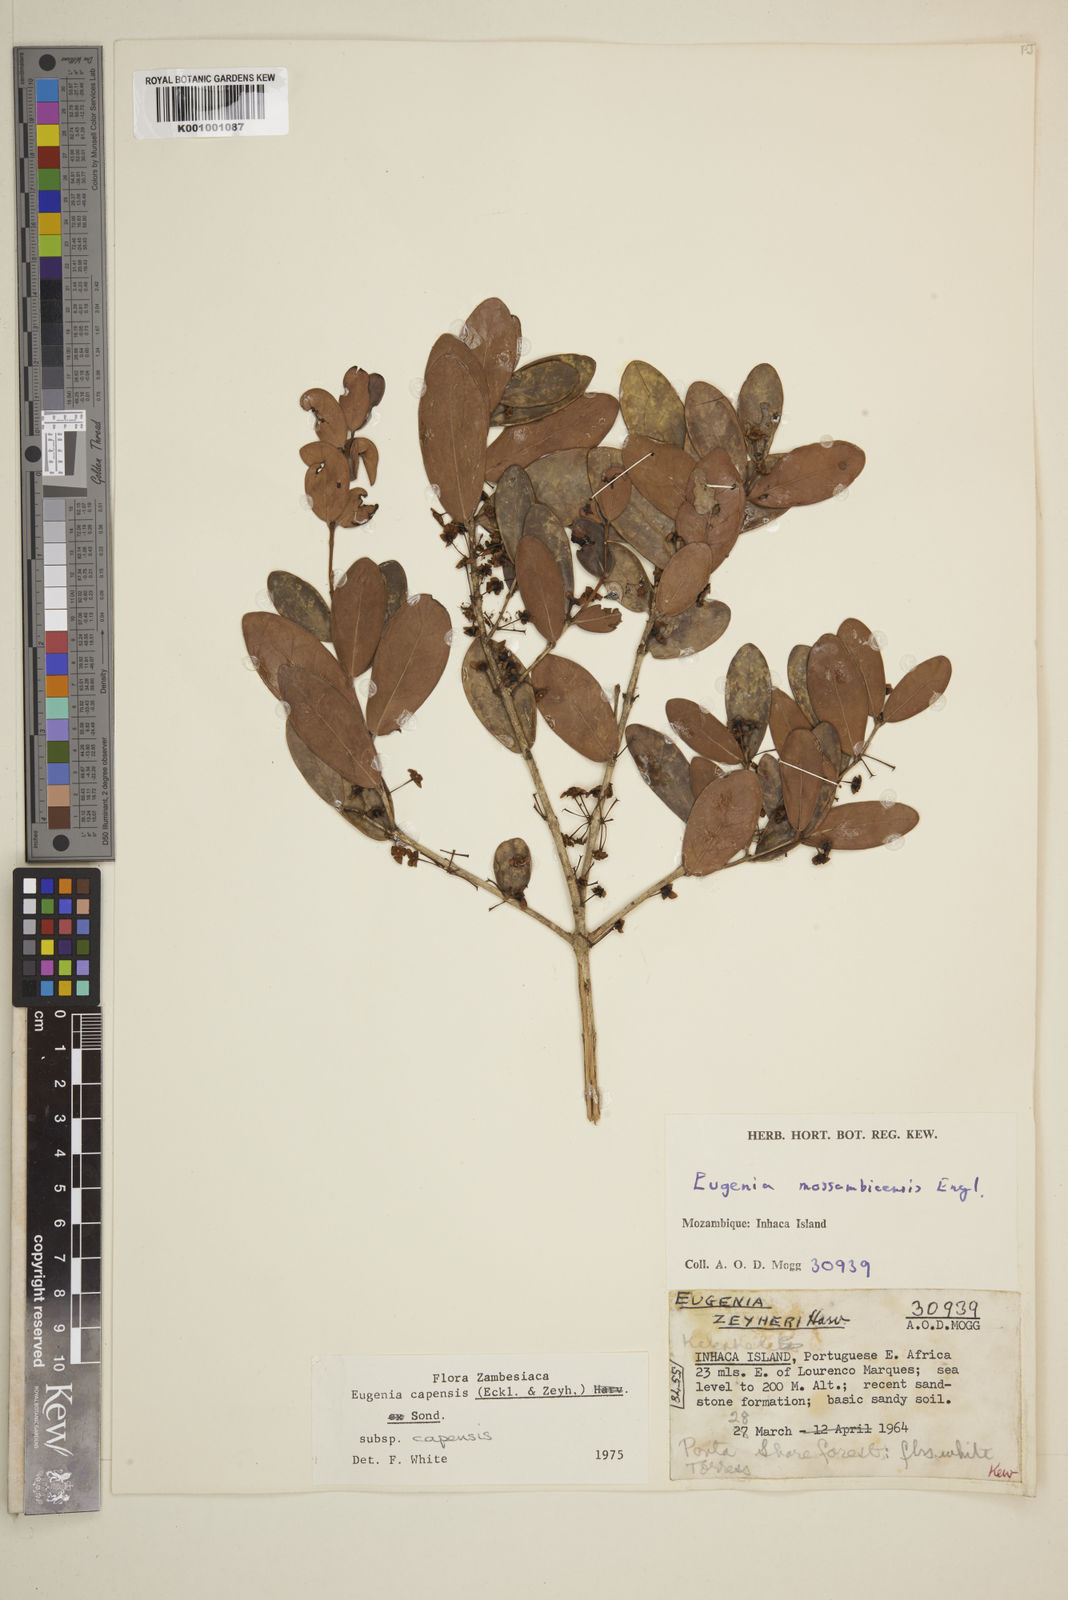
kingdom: Plantae
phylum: Tracheophyta
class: Magnoliopsida
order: Myrtales
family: Myrtaceae
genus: Eugenia
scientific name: Eugenia capensis
